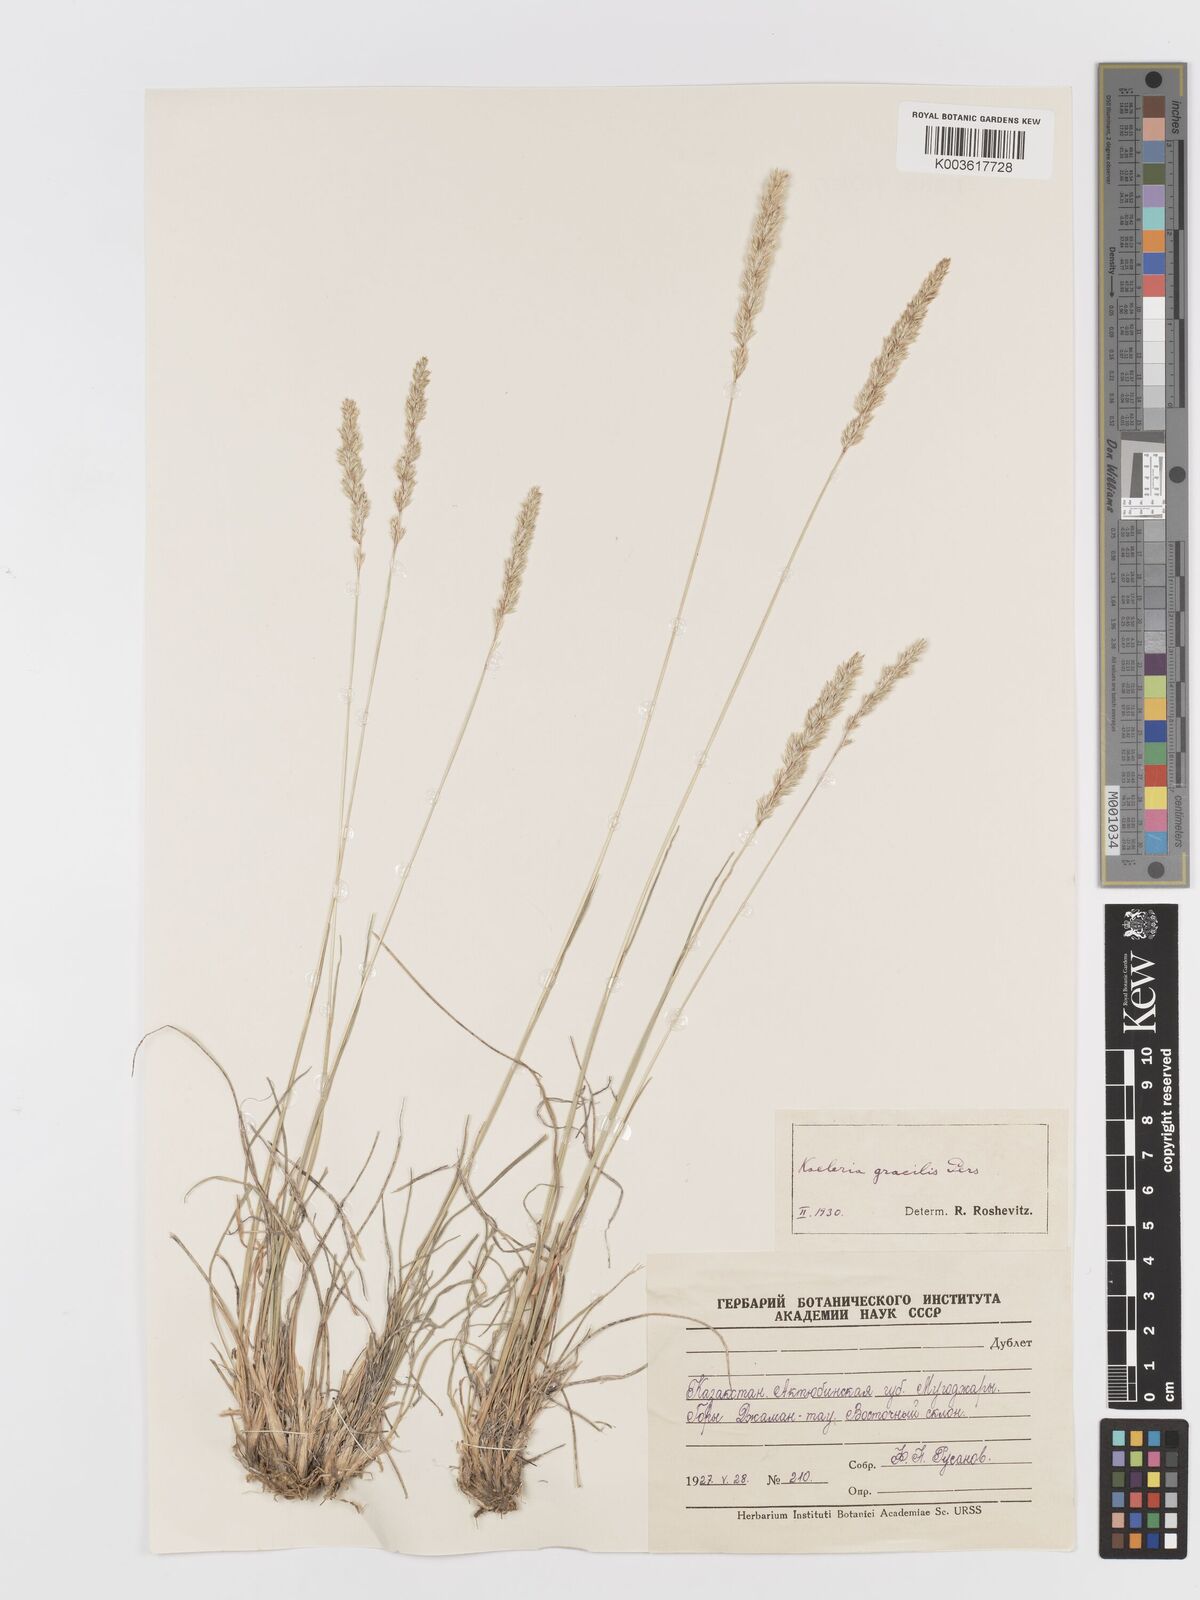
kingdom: Plantae
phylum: Tracheophyta
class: Liliopsida
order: Poales
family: Poaceae
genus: Koeleria
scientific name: Koeleria splendens
